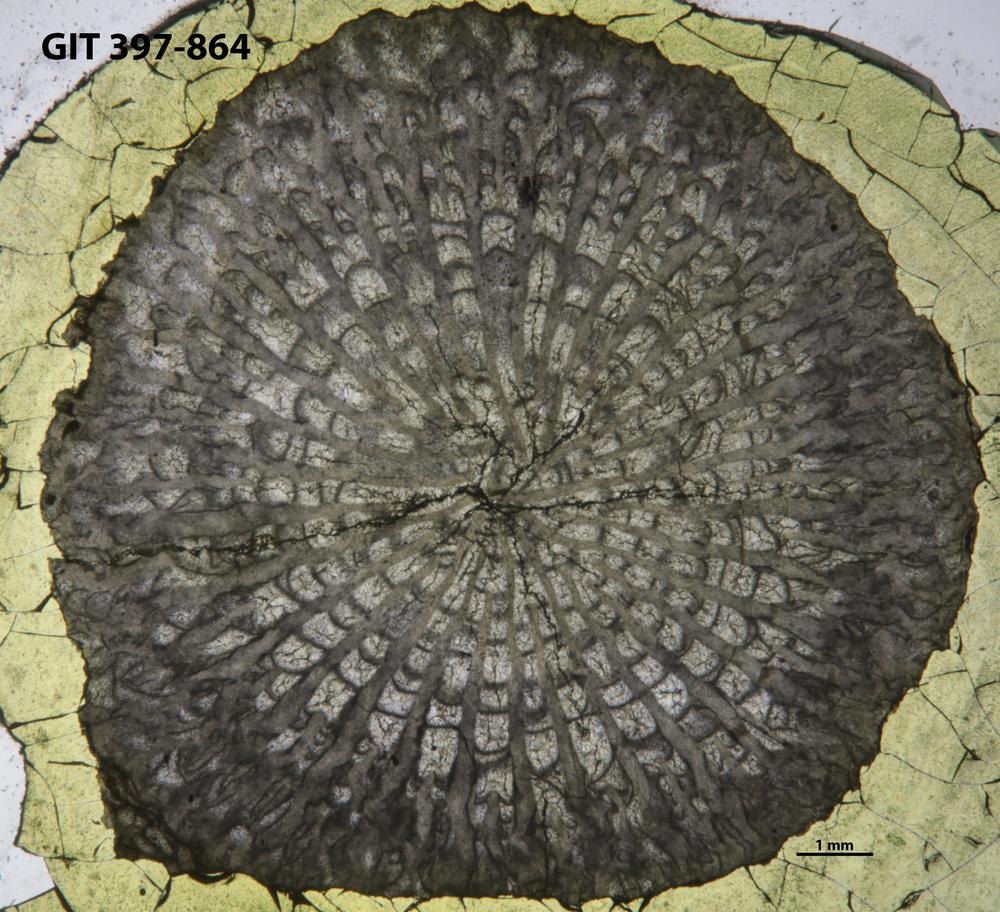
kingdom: Animalia
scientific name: Animalia
